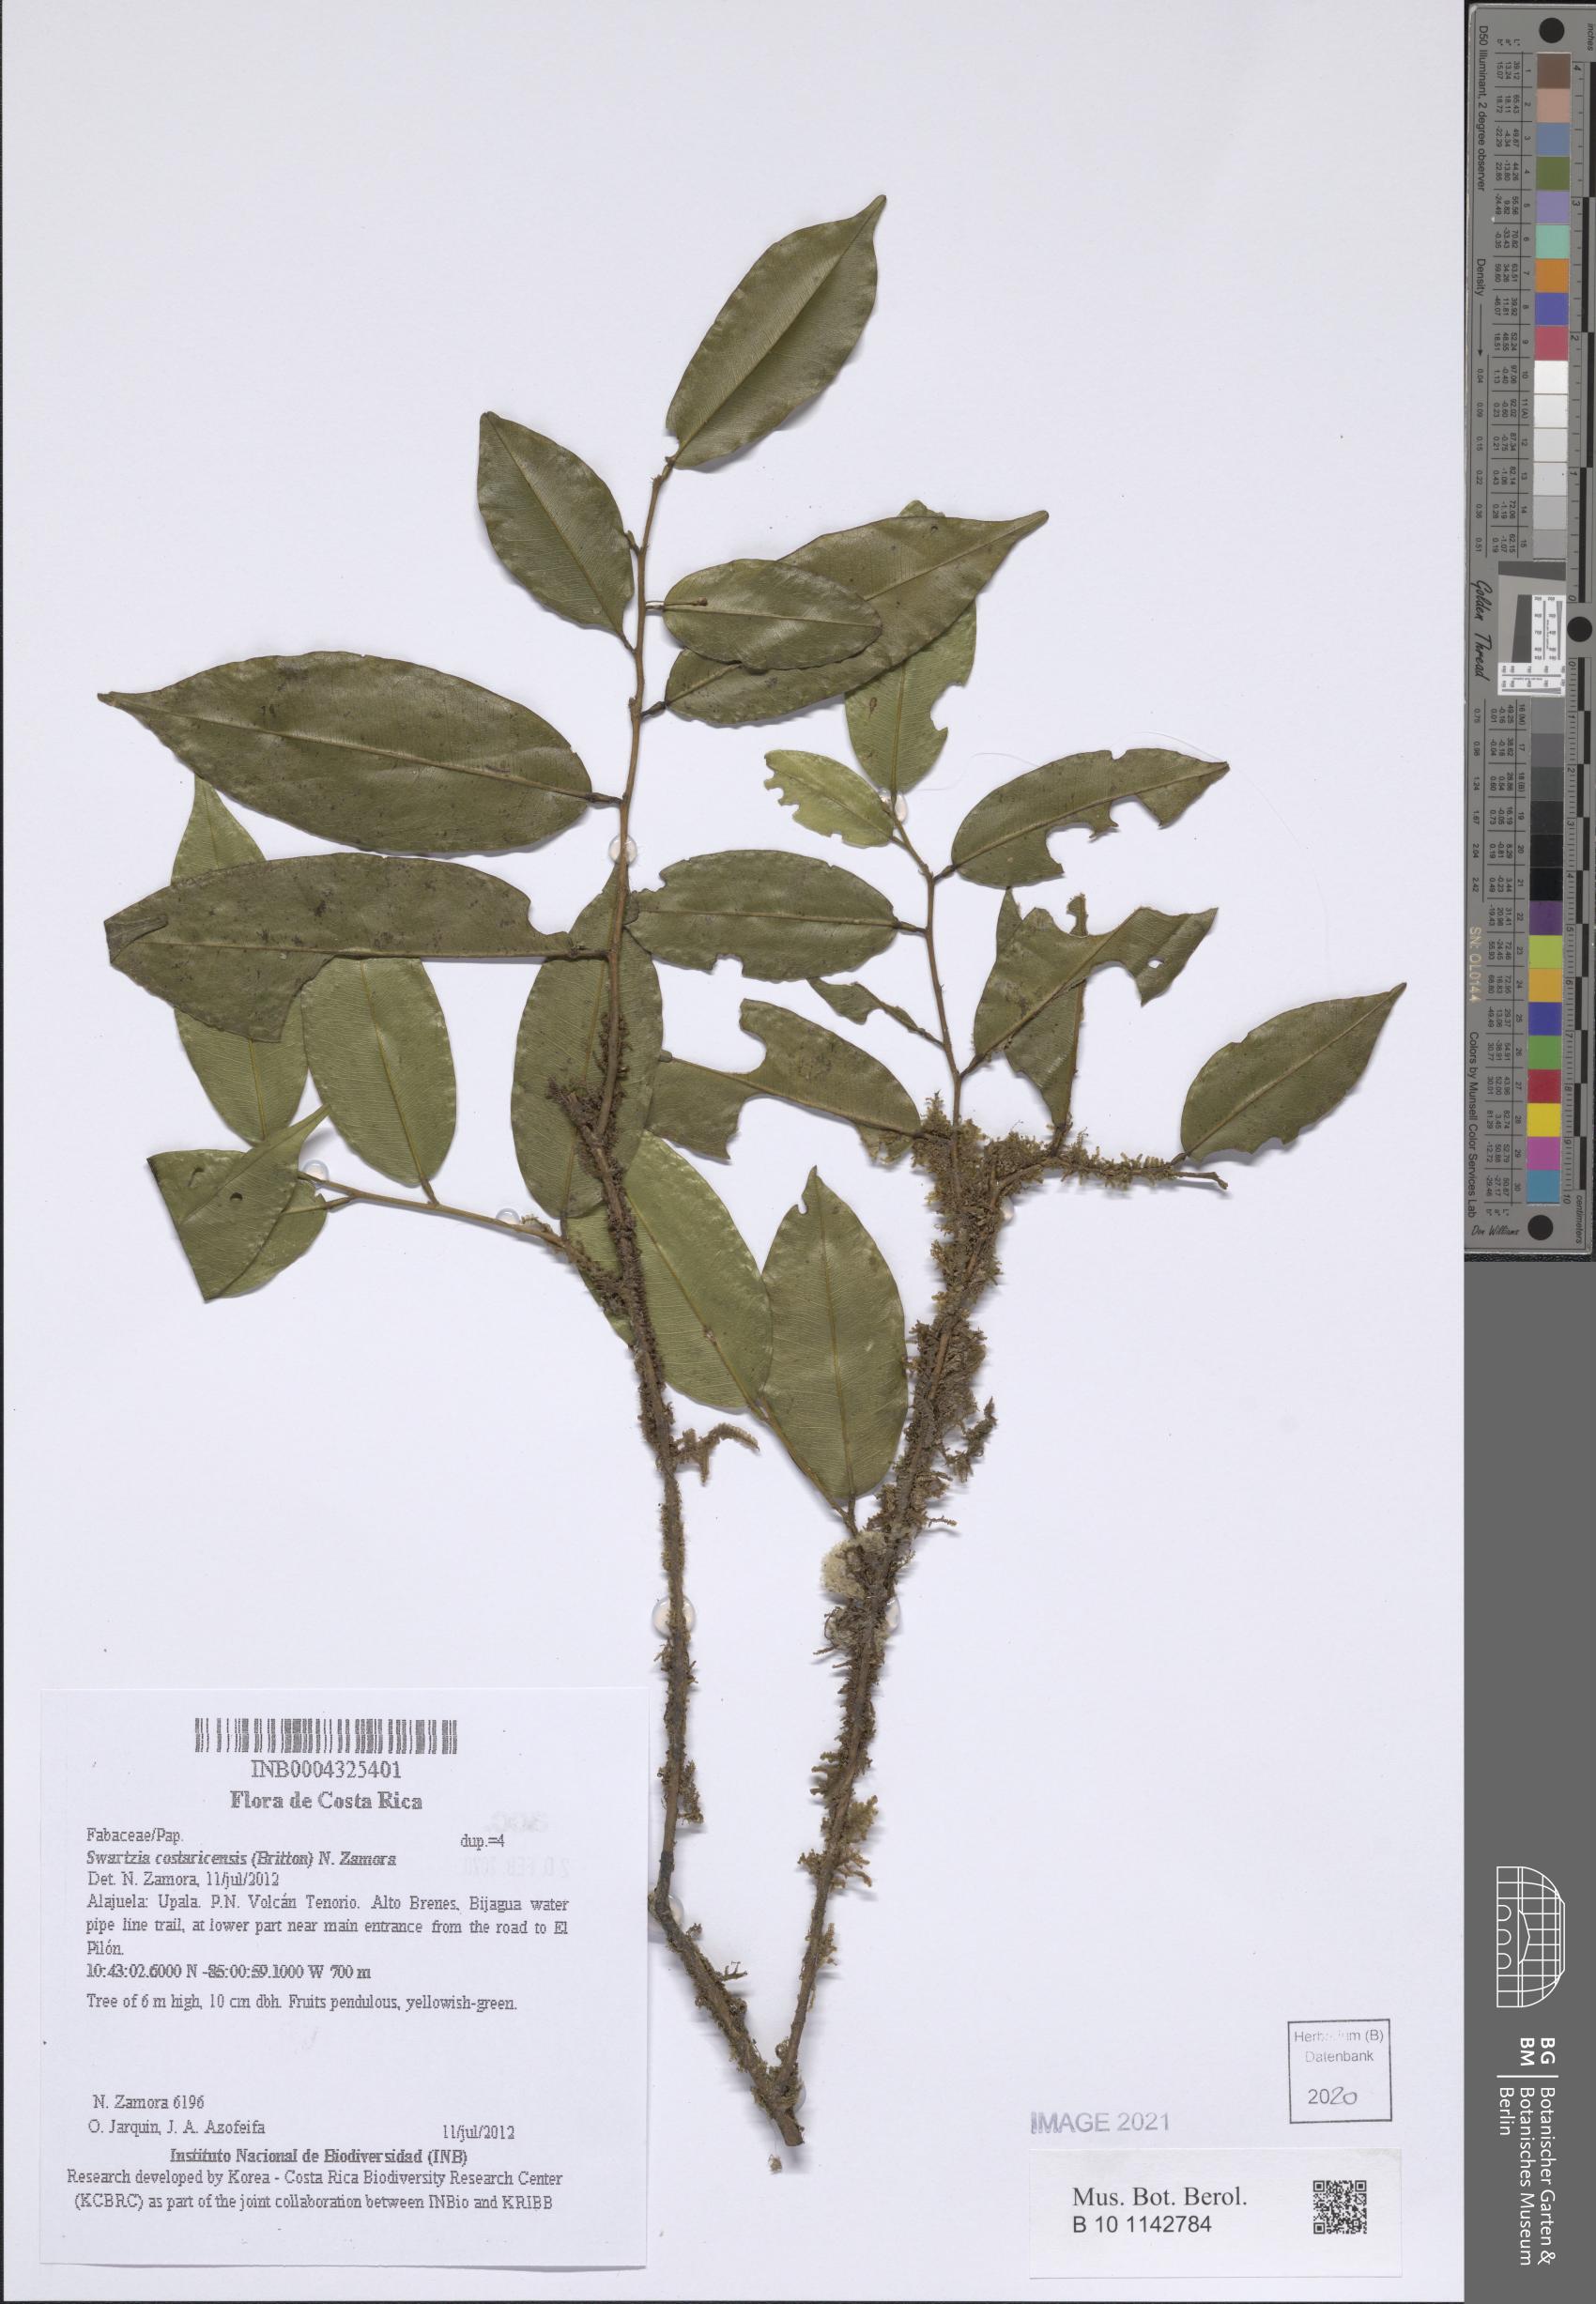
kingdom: Plantae
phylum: Tracheophyta
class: Magnoliopsida
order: Fabales
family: Fabaceae
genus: Swartzia
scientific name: Swartzia guatemalensis
